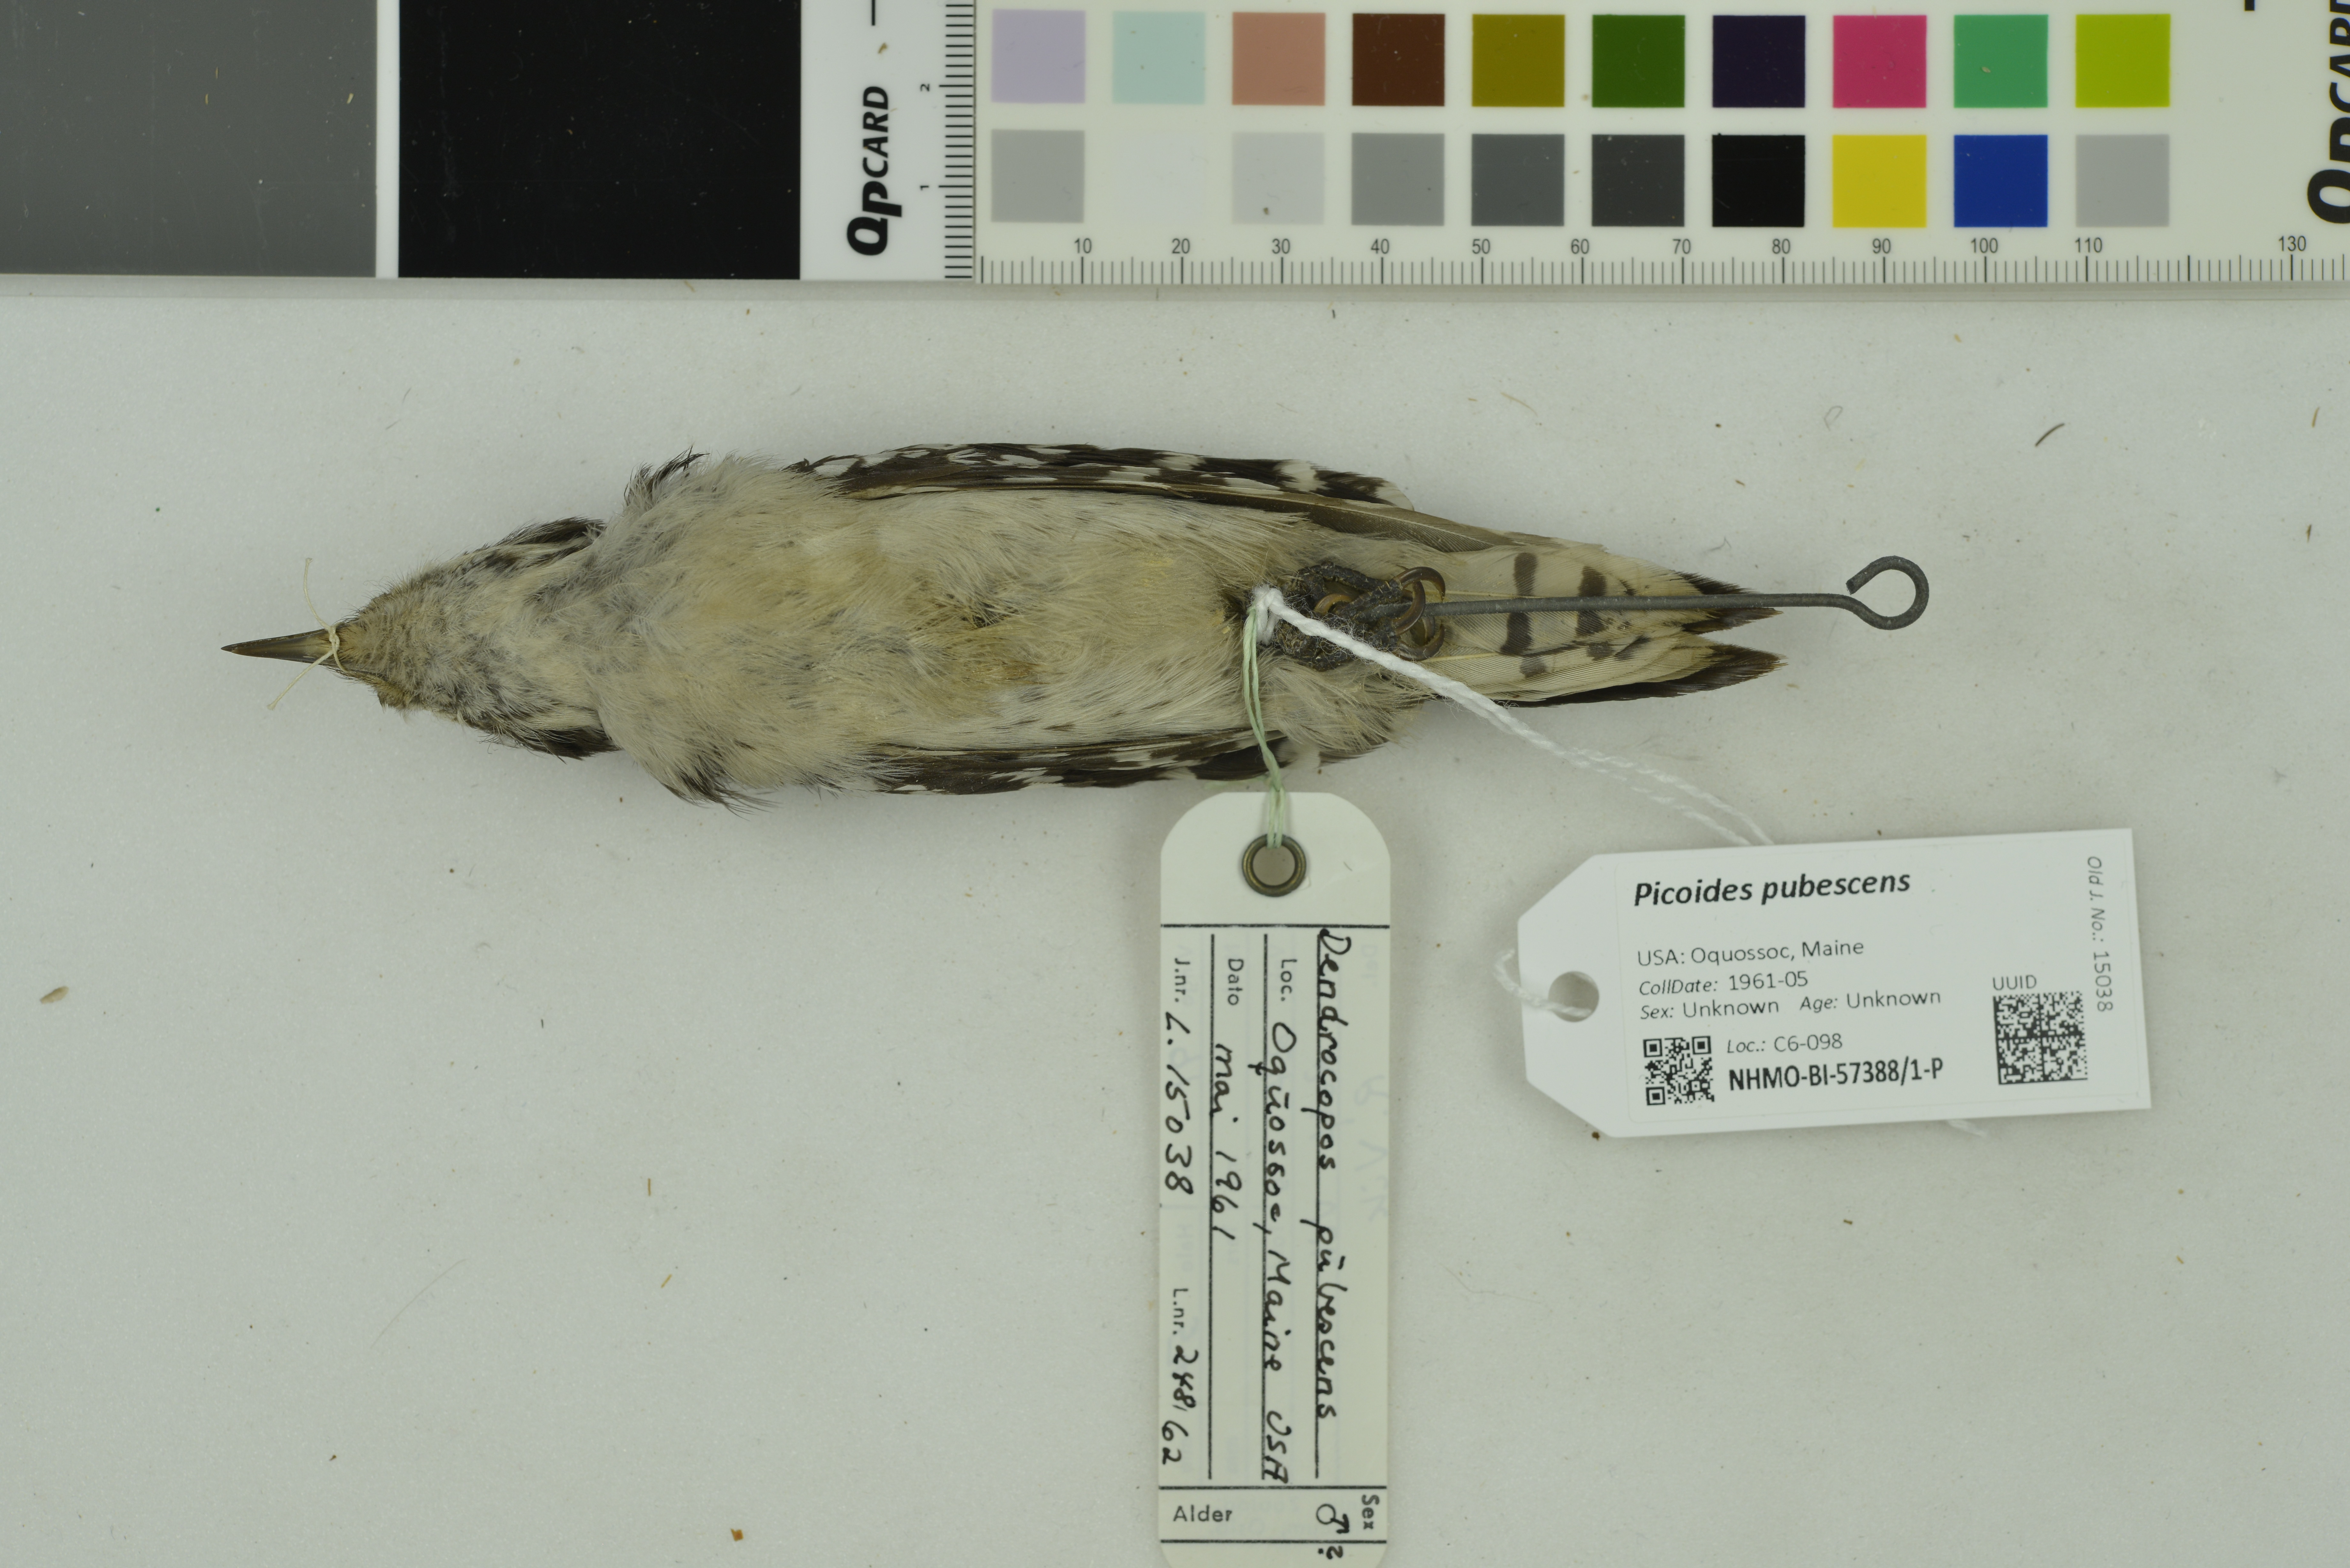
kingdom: Animalia
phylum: Chordata
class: Aves
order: Piciformes
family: Picidae
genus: Dryobates
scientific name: Dryobates pubescens
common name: Downy woodpecker
